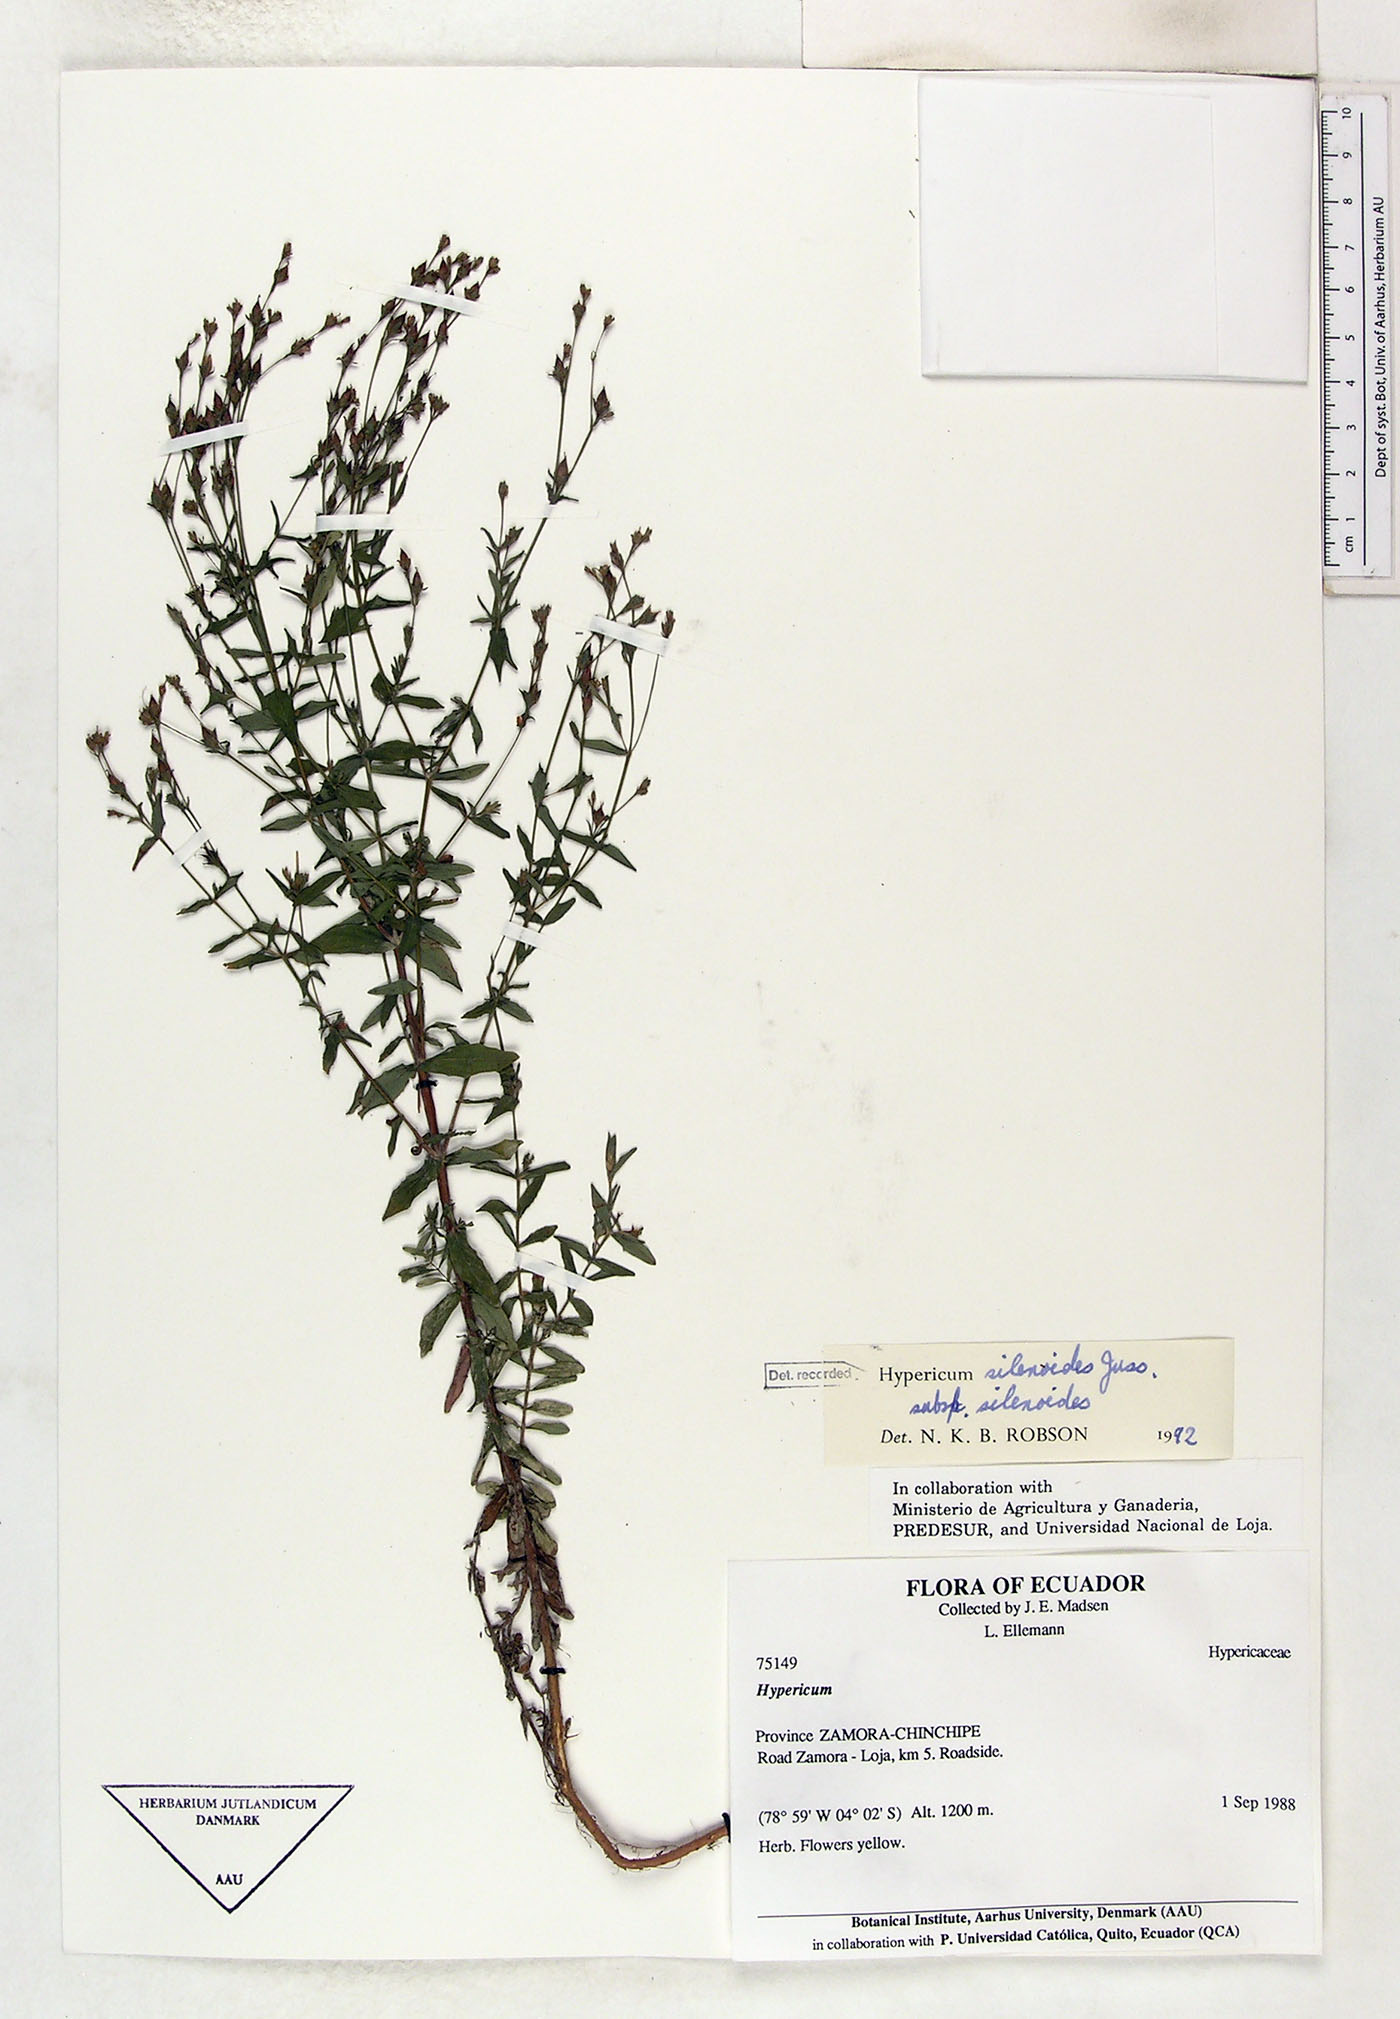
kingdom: Plantae
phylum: Tracheophyta
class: Magnoliopsida
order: Malpighiales
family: Hypericaceae
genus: Hypericum
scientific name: Hypericum silenoides
